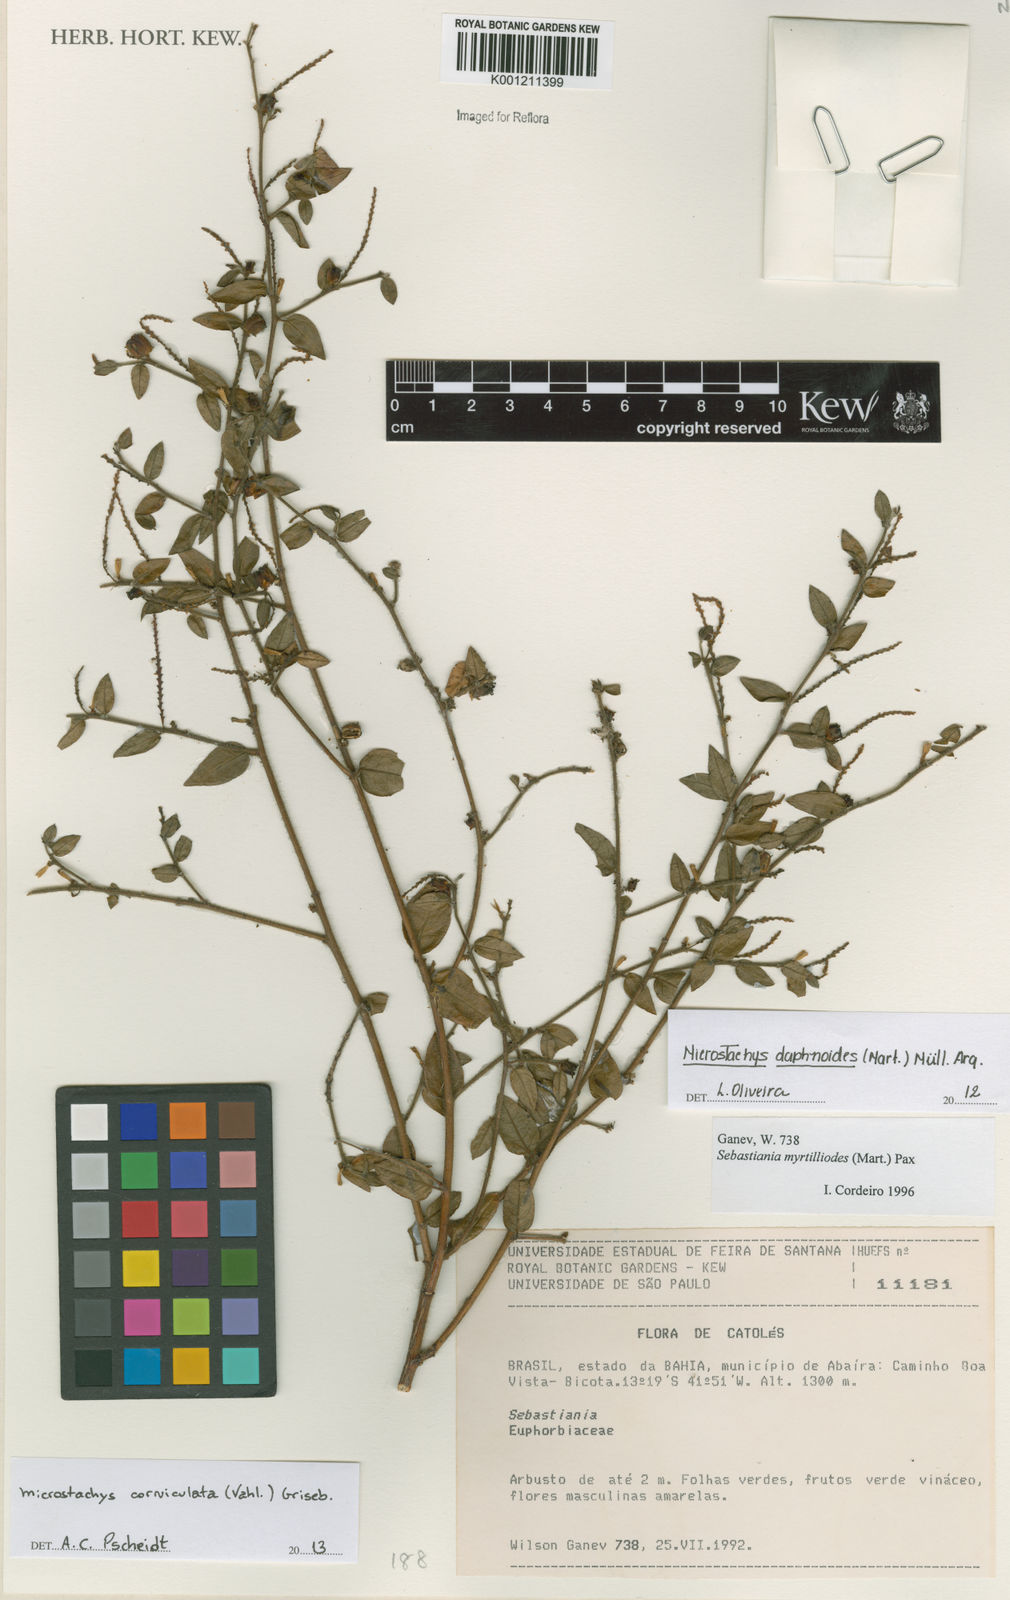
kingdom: Plantae
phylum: Tracheophyta
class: Magnoliopsida
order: Malpighiales
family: Euphorbiaceae
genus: Microstachys
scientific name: Microstachys corniculata
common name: Hato tejas
